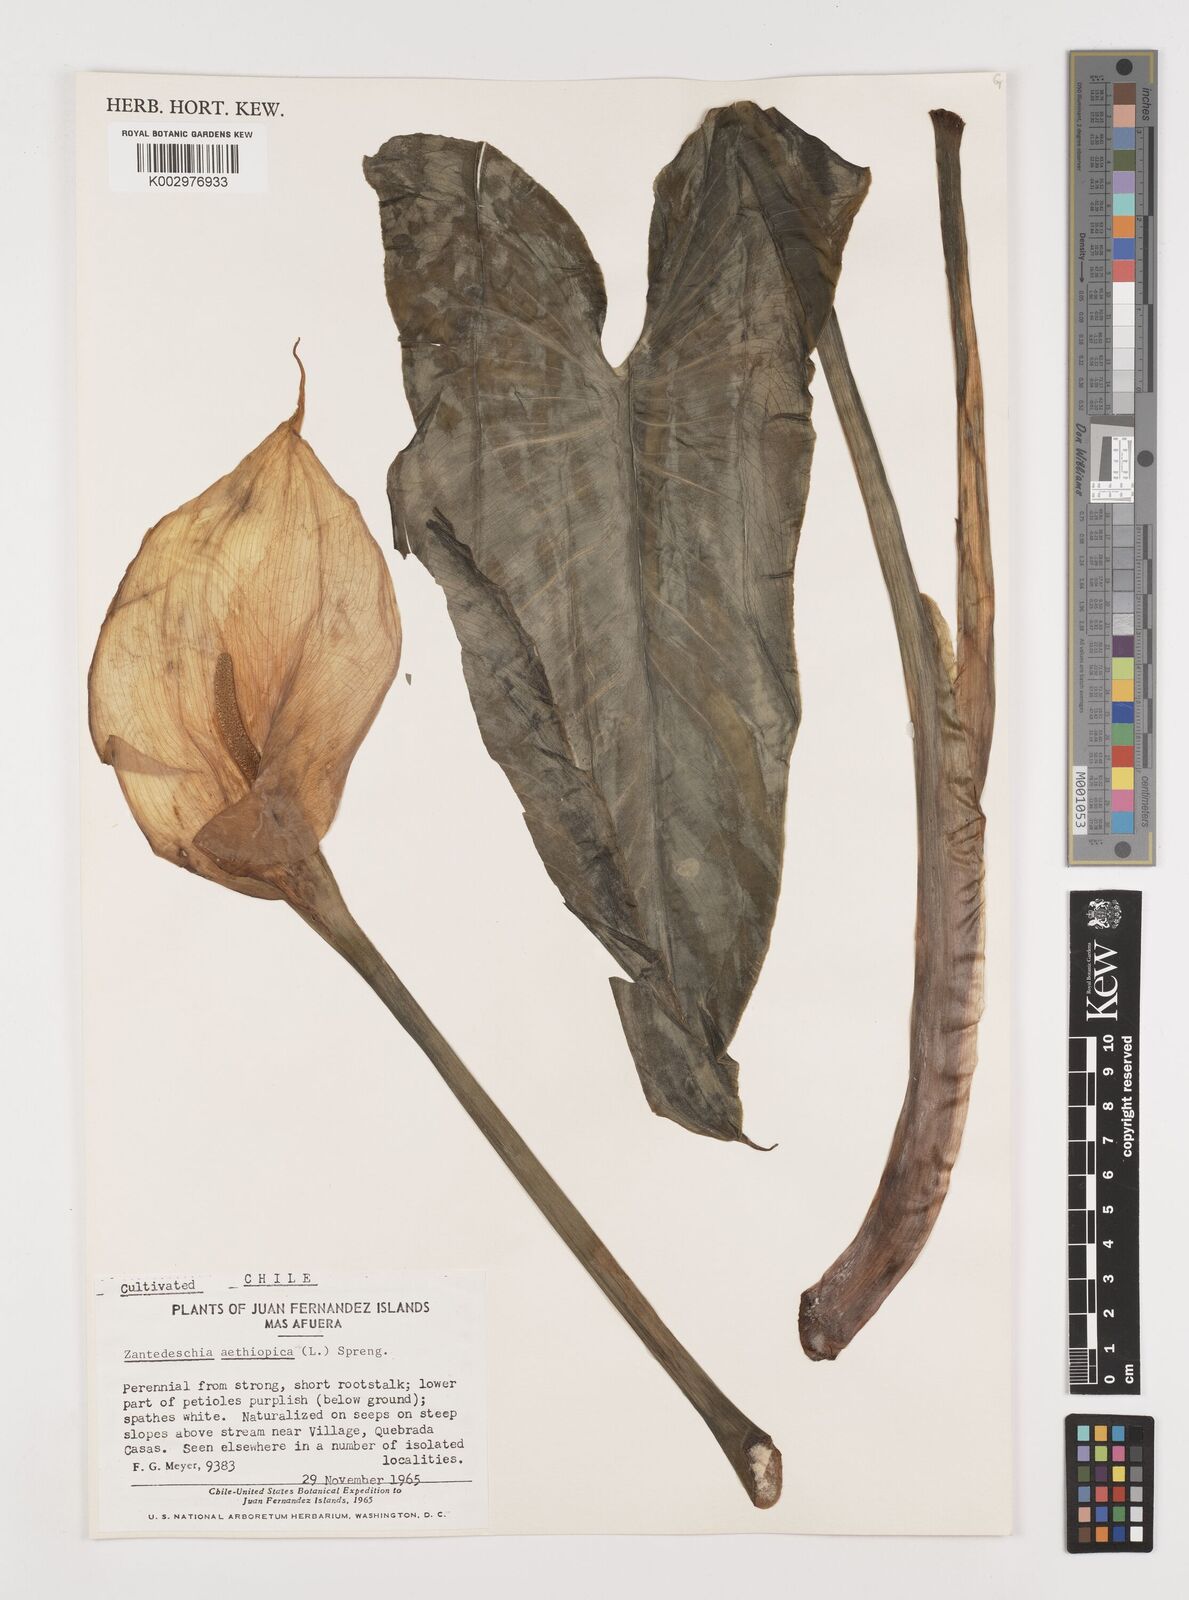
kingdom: Plantae
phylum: Tracheophyta
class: Liliopsida
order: Alismatales
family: Araceae
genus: Zantedeschia
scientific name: Zantedeschia aethiopica
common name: Altar-lily
